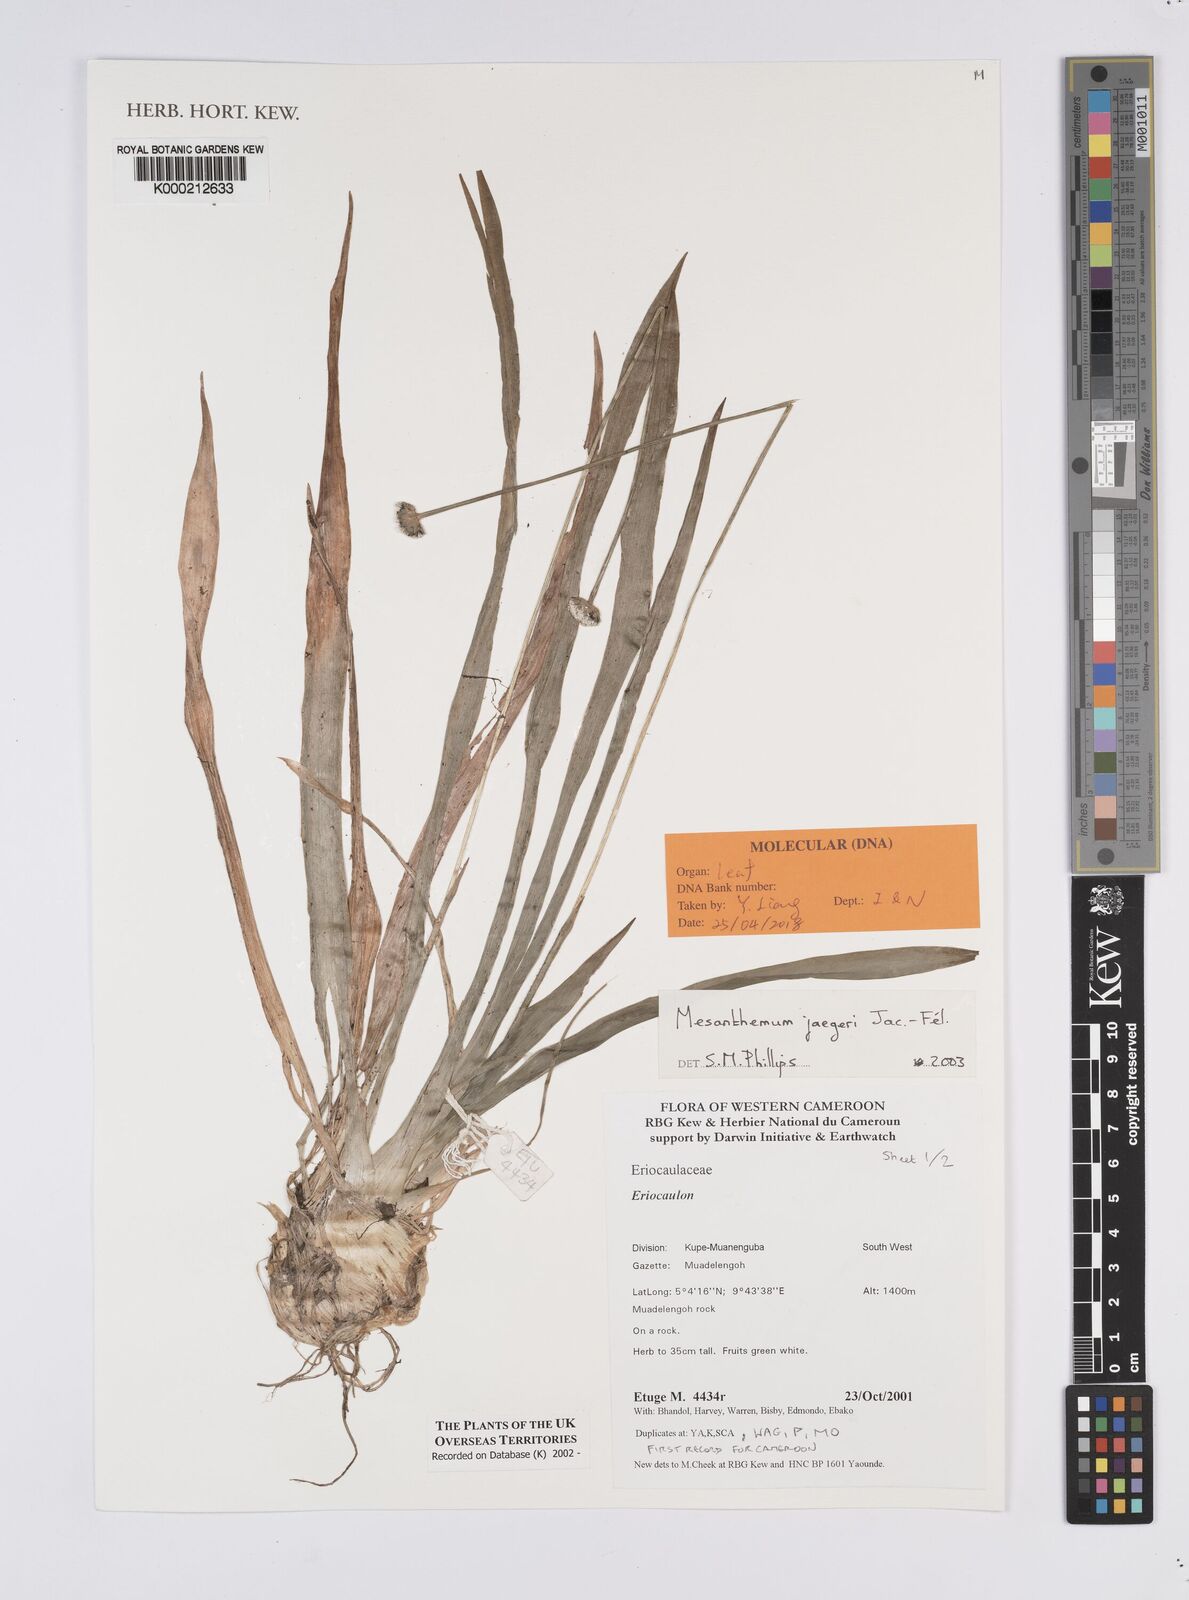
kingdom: Plantae
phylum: Tracheophyta
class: Liliopsida
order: Poales
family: Eriocaulaceae
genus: Mesanthemum
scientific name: Mesanthemum
